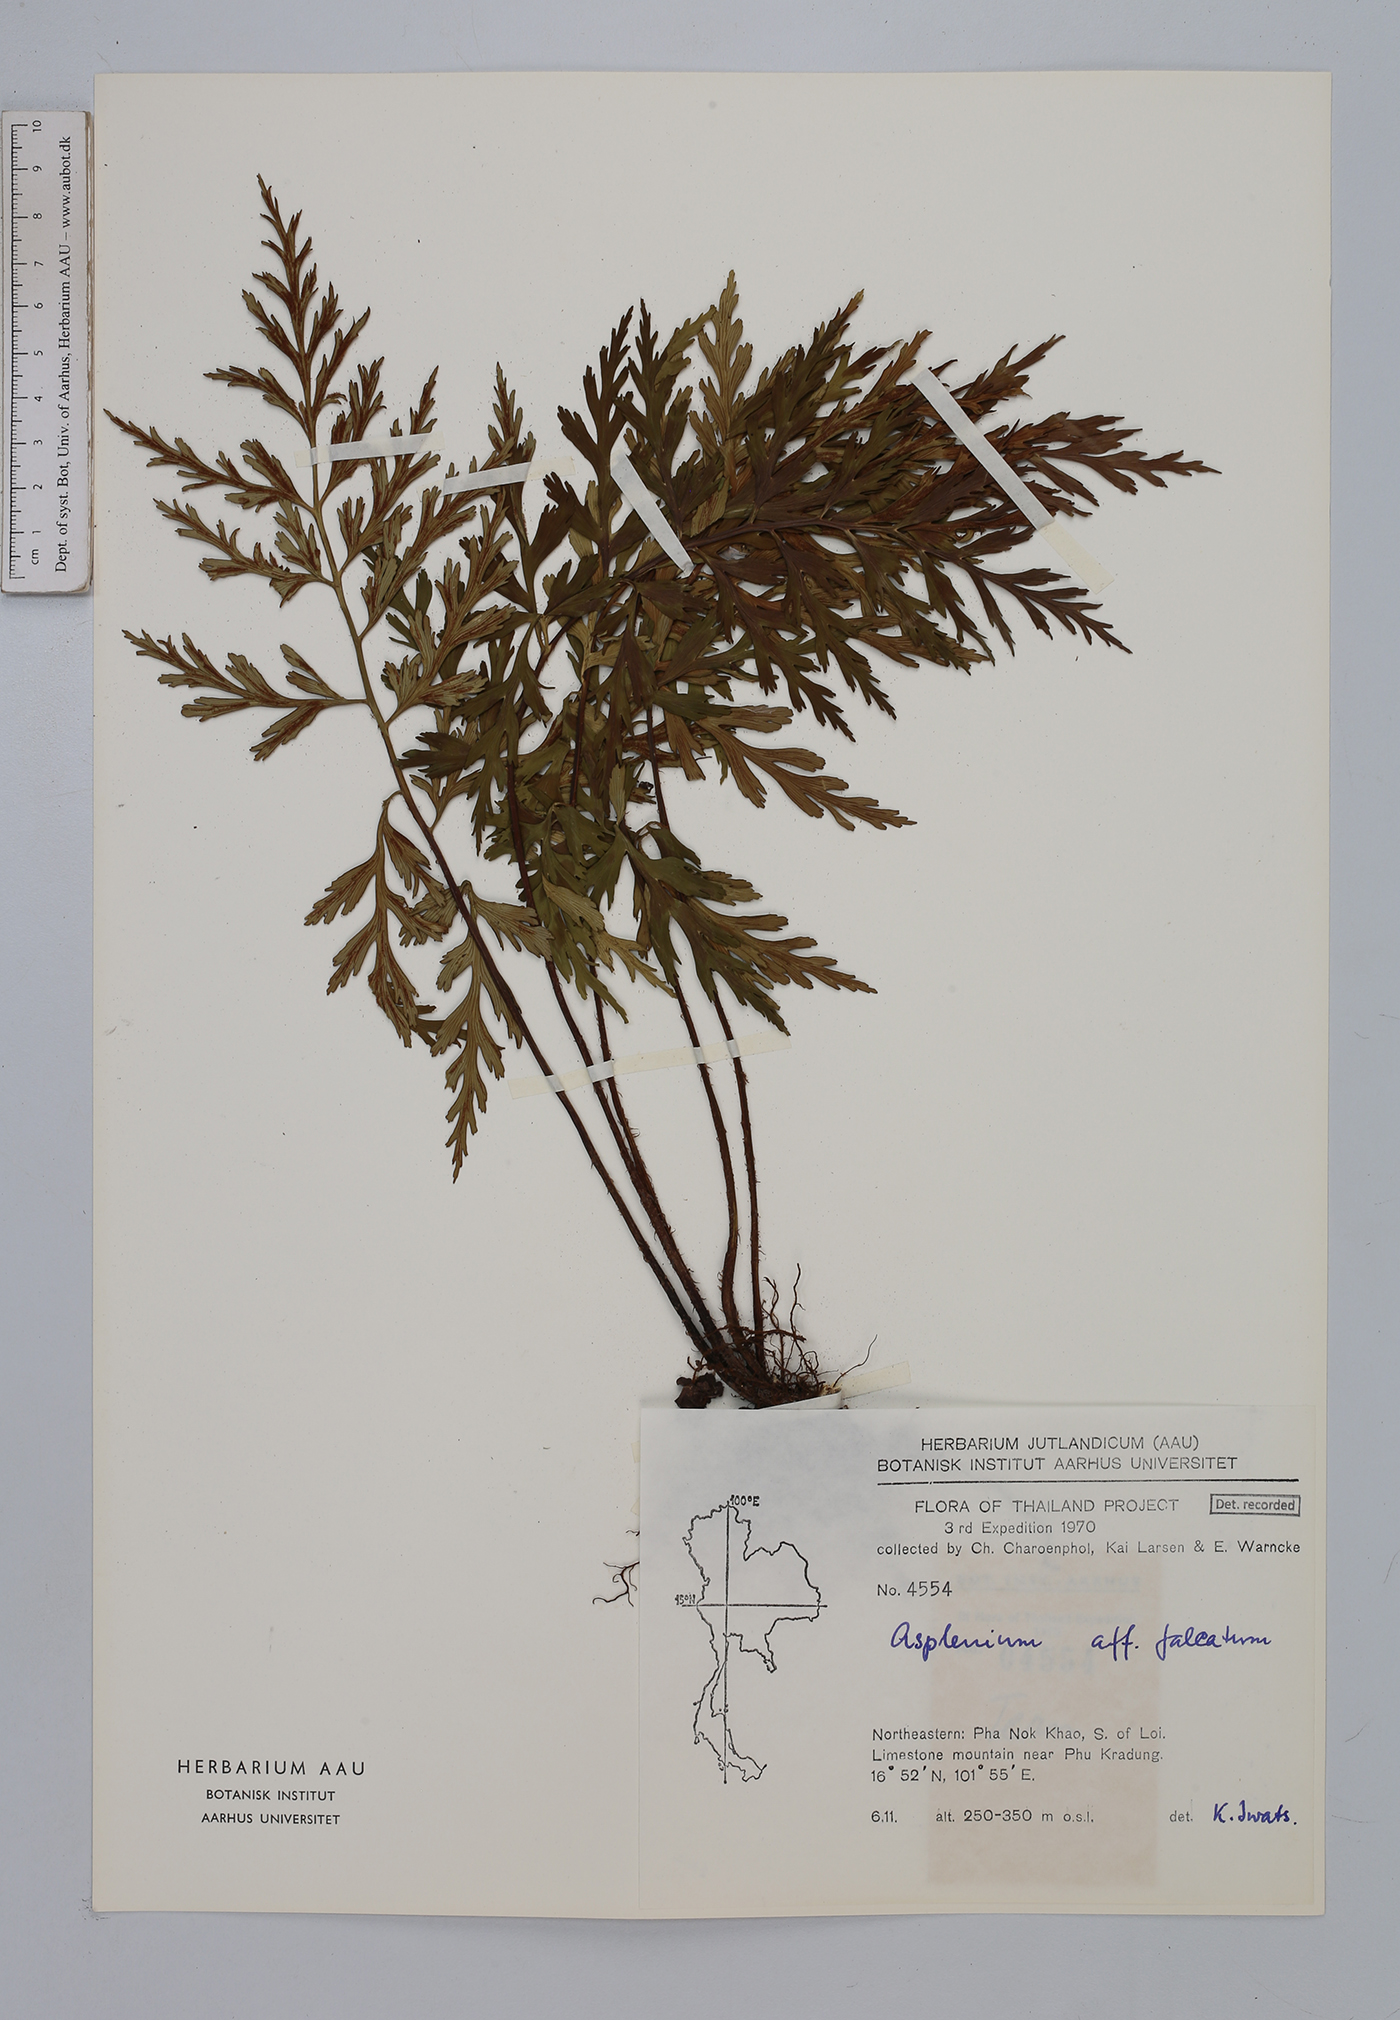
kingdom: Plantae
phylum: Tracheophyta
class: Polypodiopsida
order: Polypodiales
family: Aspleniaceae
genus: Asplenium
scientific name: Asplenium falcatum
